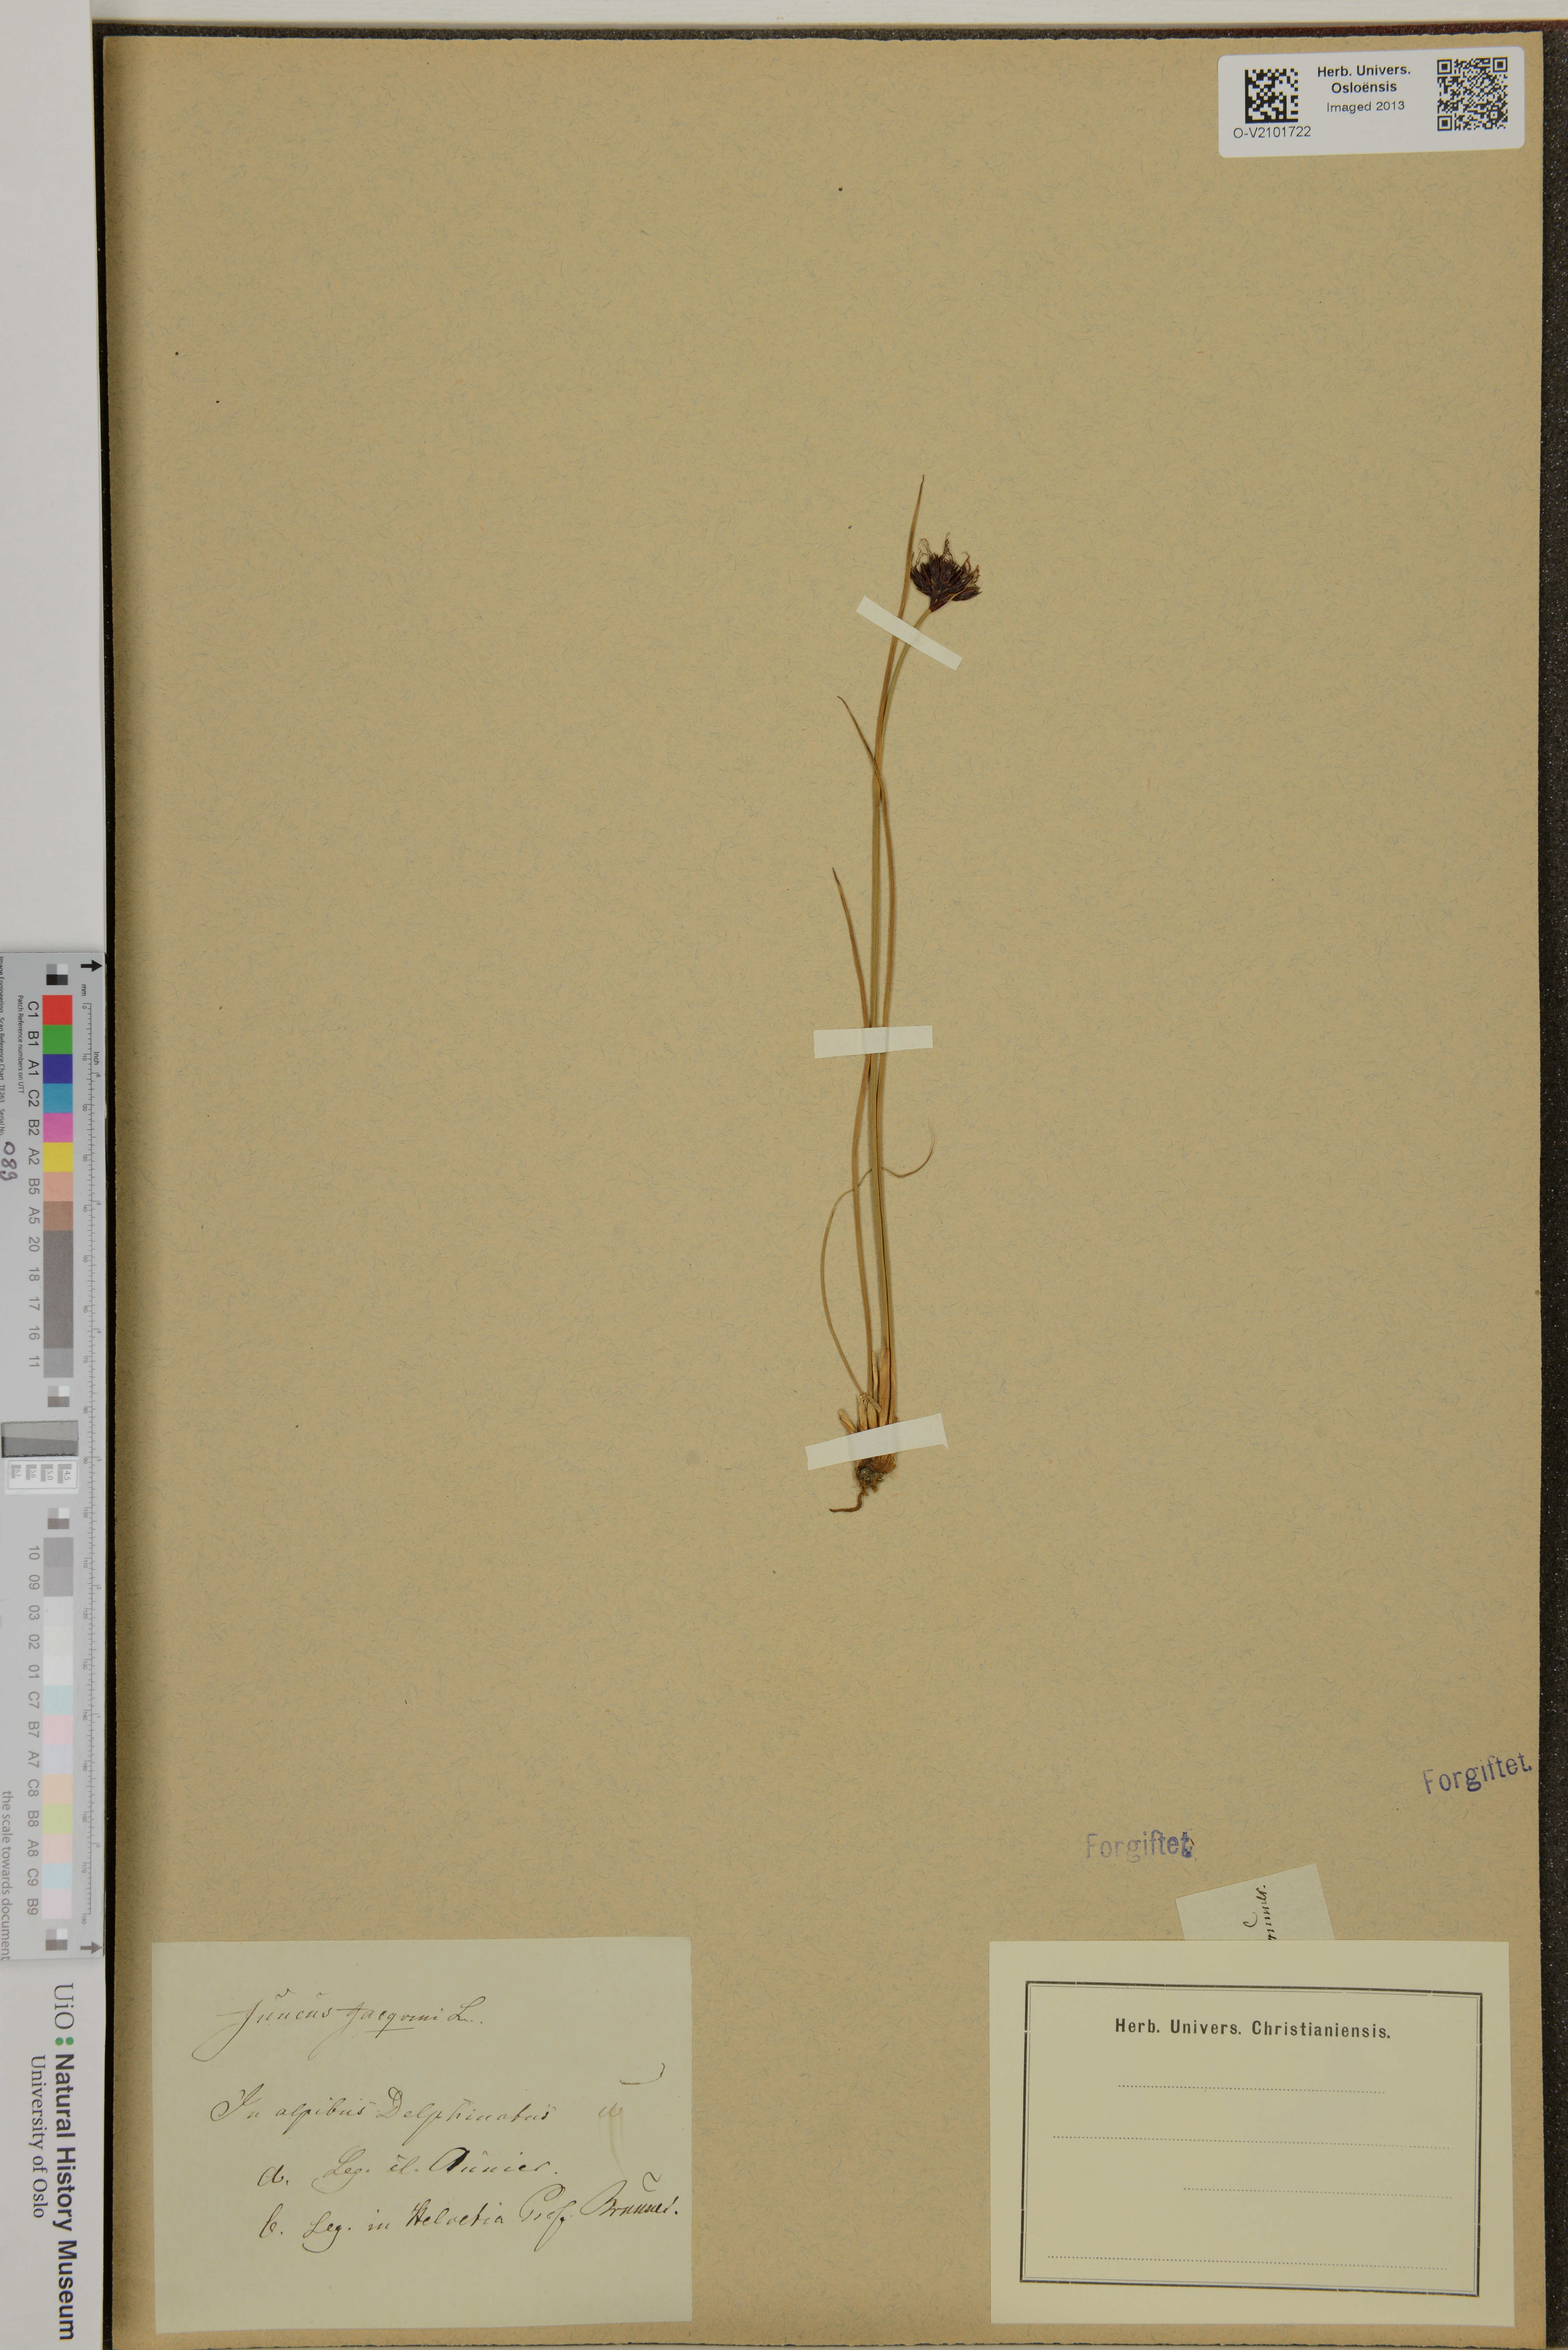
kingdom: Plantae
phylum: Tracheophyta
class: Liliopsida
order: Poales
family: Juncaceae
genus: Juncus
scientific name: Juncus jacquinii
